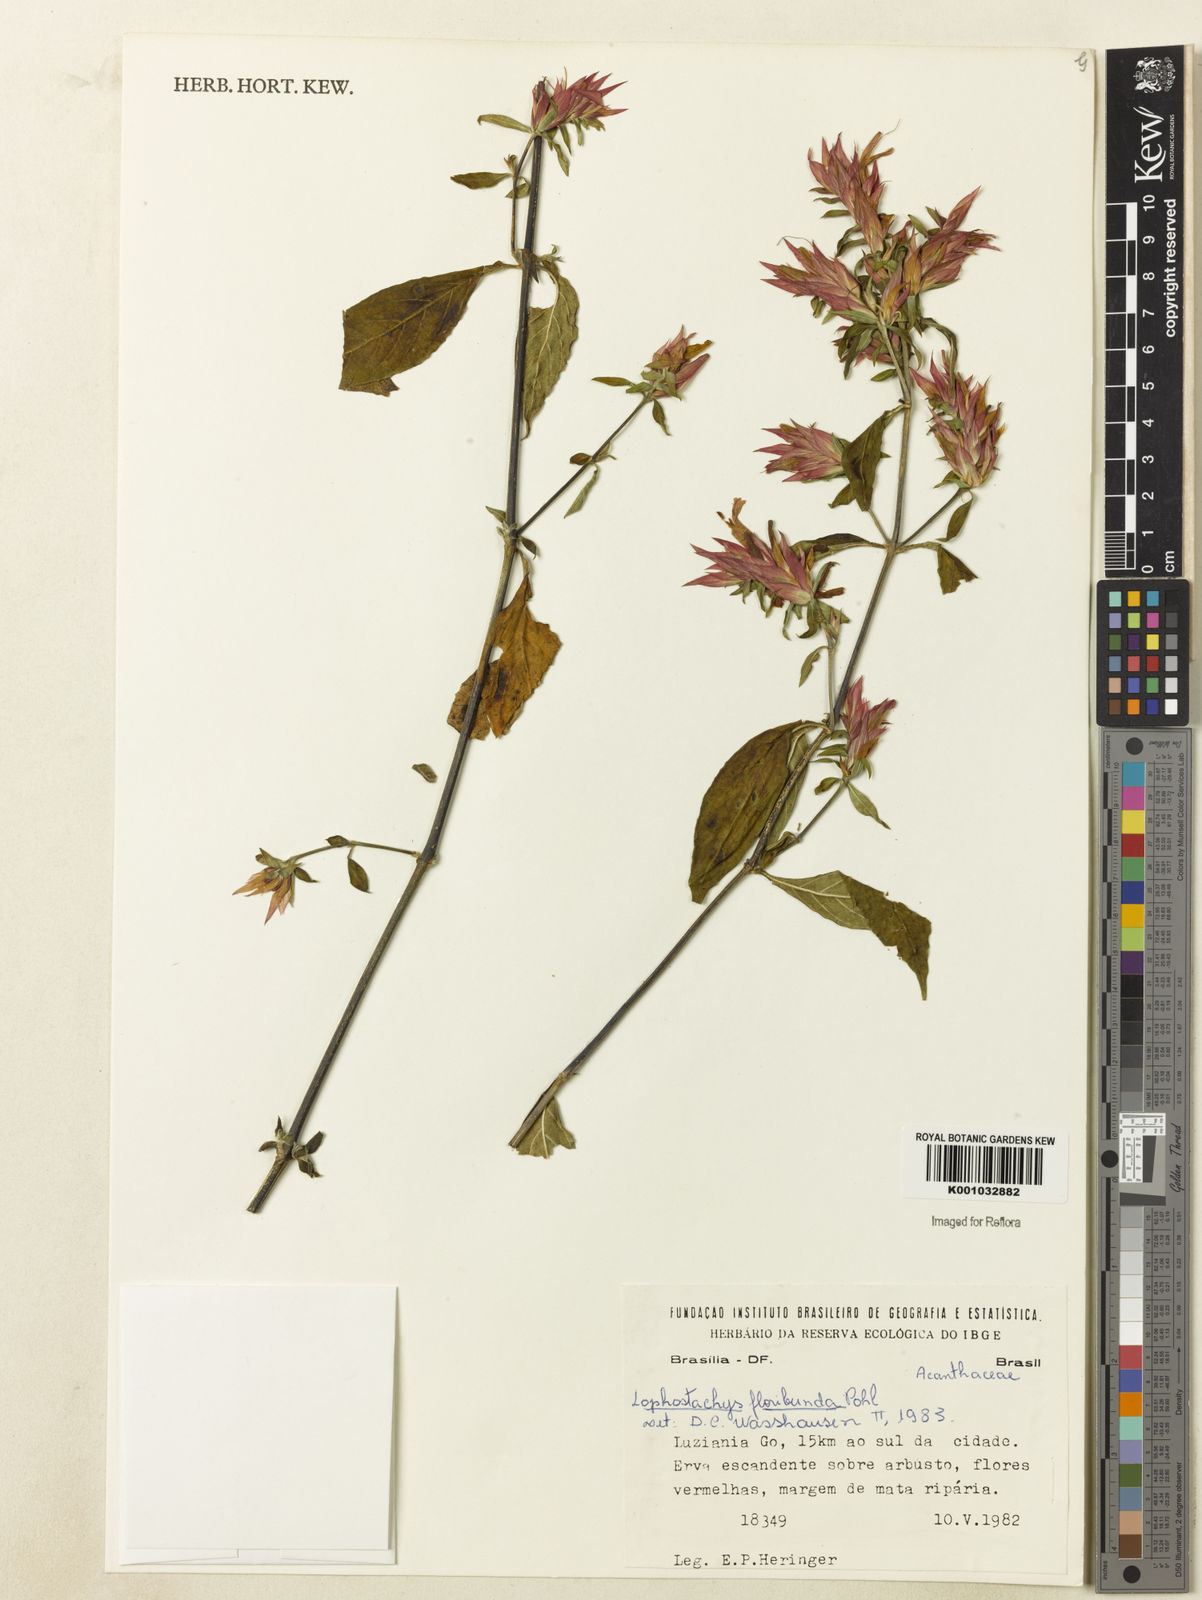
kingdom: Plantae
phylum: Tracheophyta
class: Magnoliopsida
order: Lamiales
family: Acanthaceae
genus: Lepidagathis
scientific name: Lepidagathis floribunda
